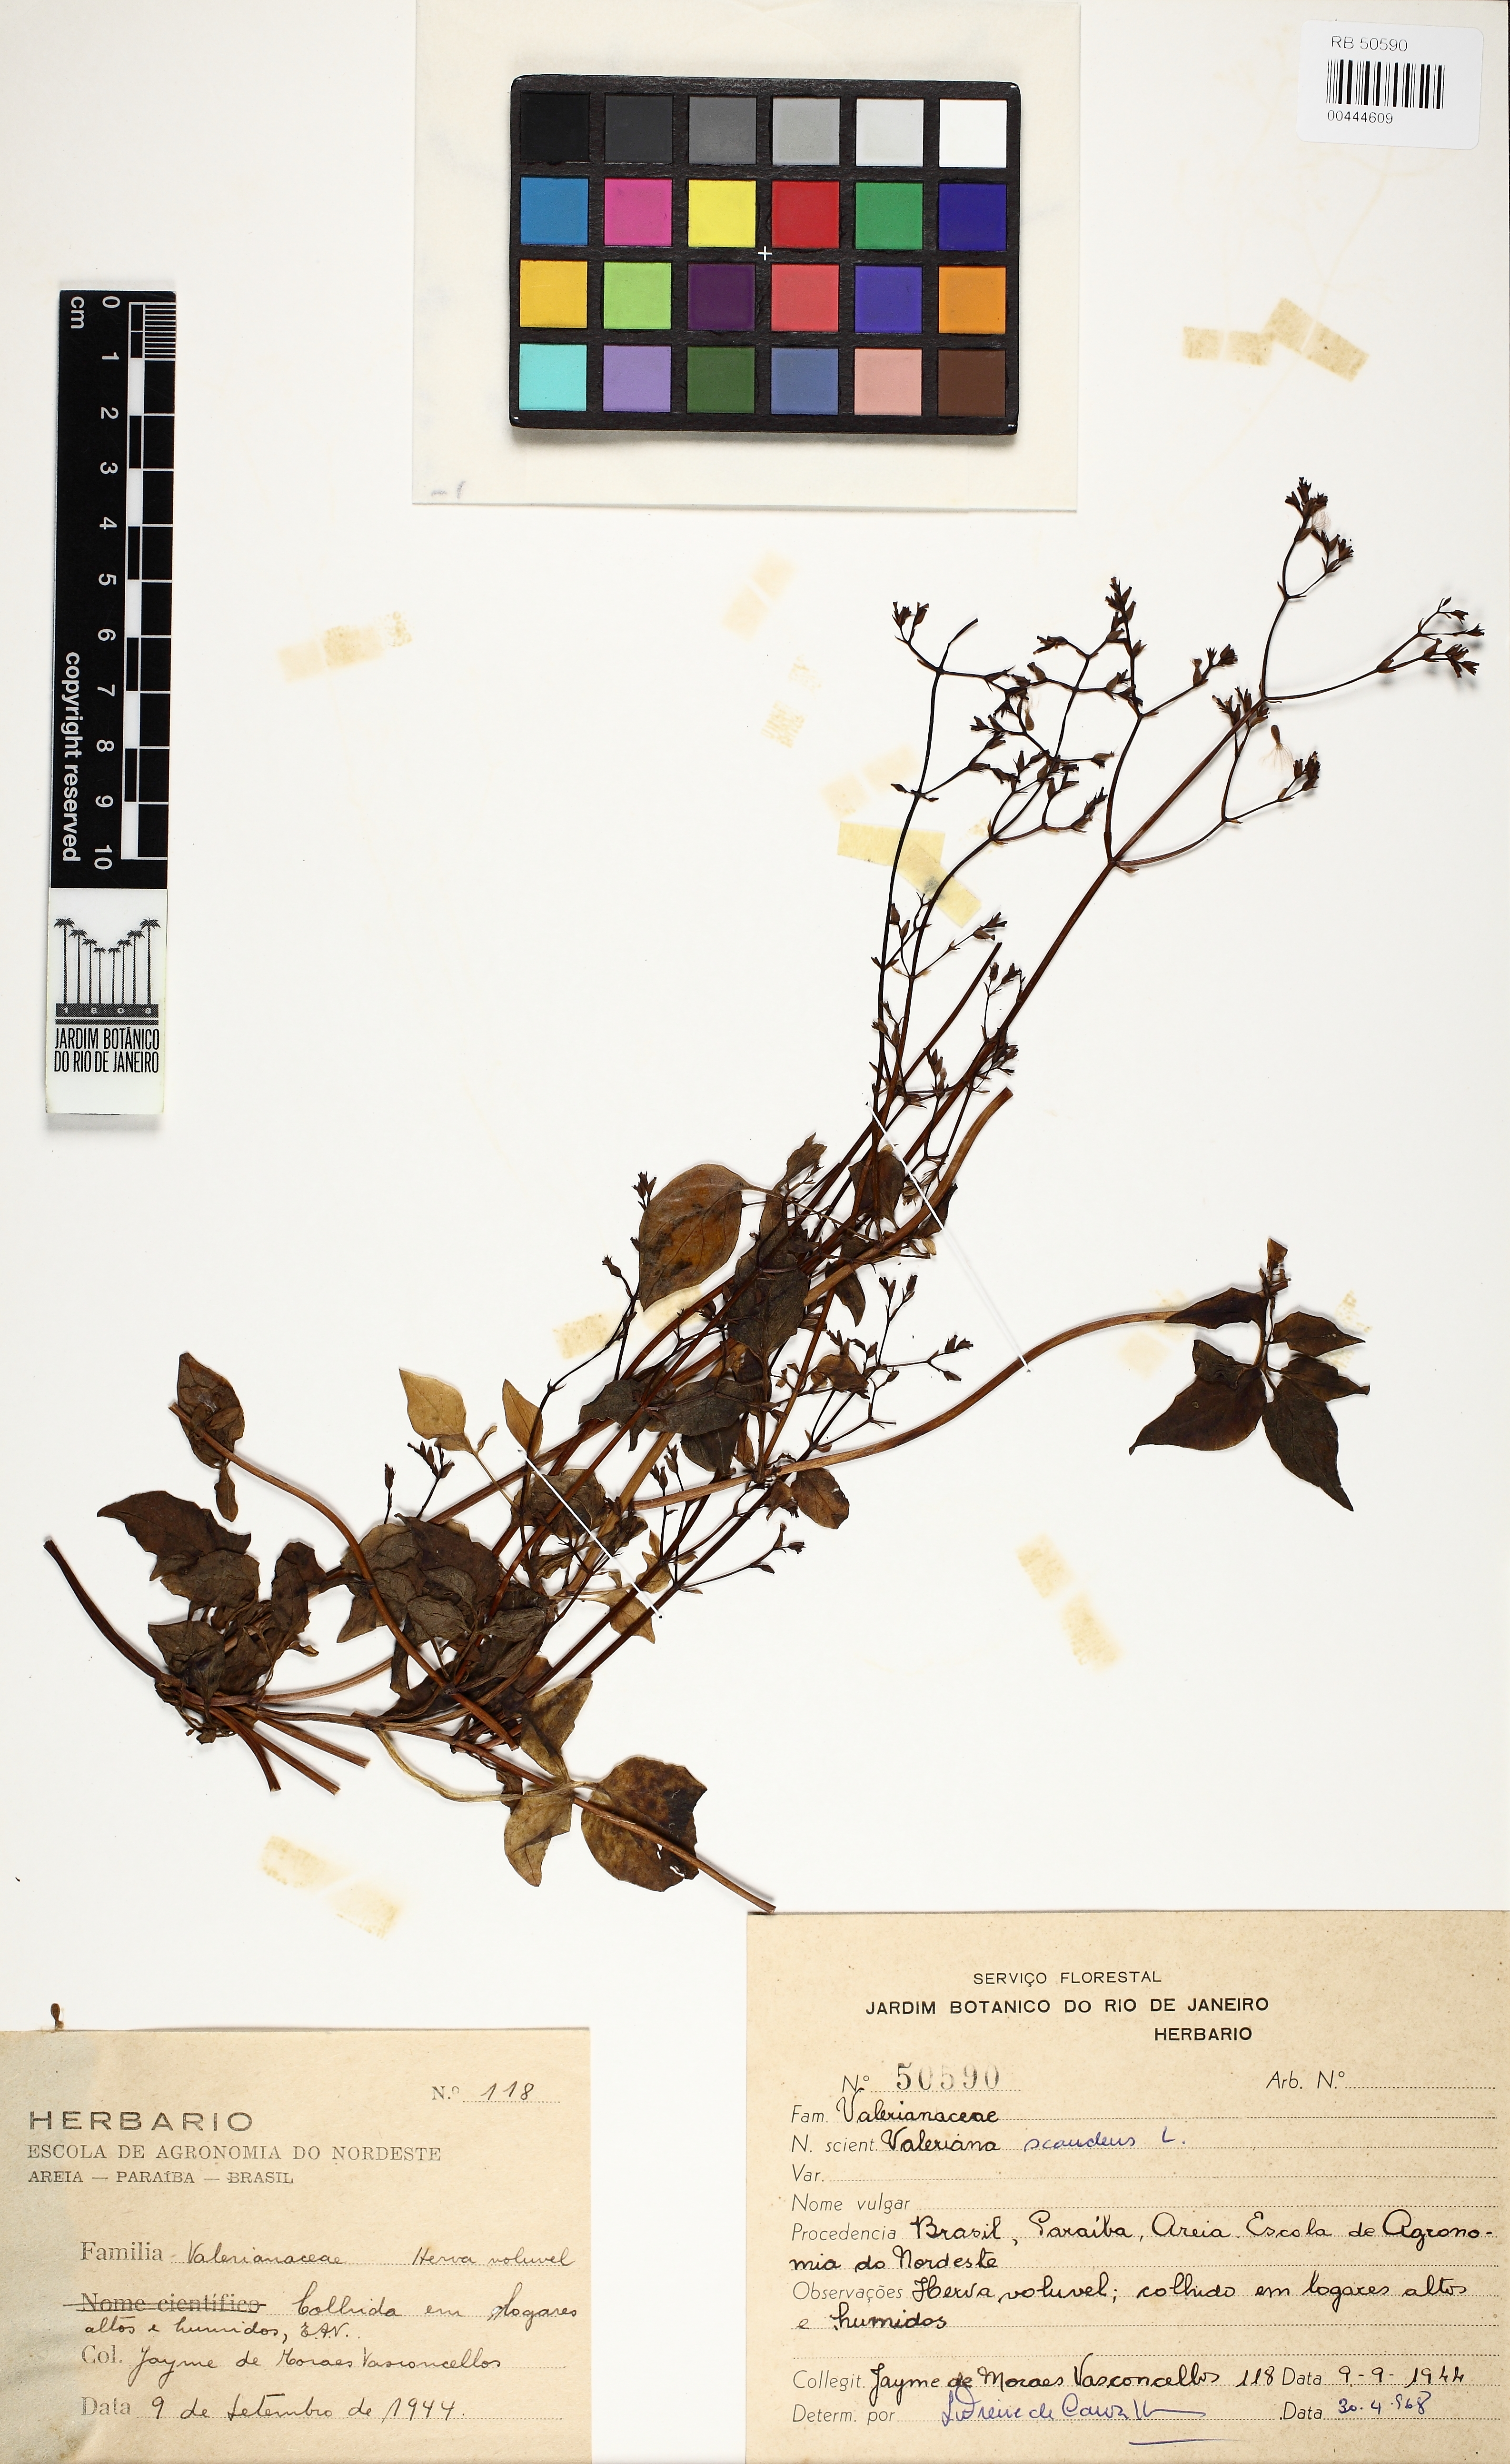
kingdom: Plantae
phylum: Tracheophyta
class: Magnoliopsida
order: Dipsacales
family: Caprifoliaceae
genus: Valeriana
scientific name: Valeriana scandens
